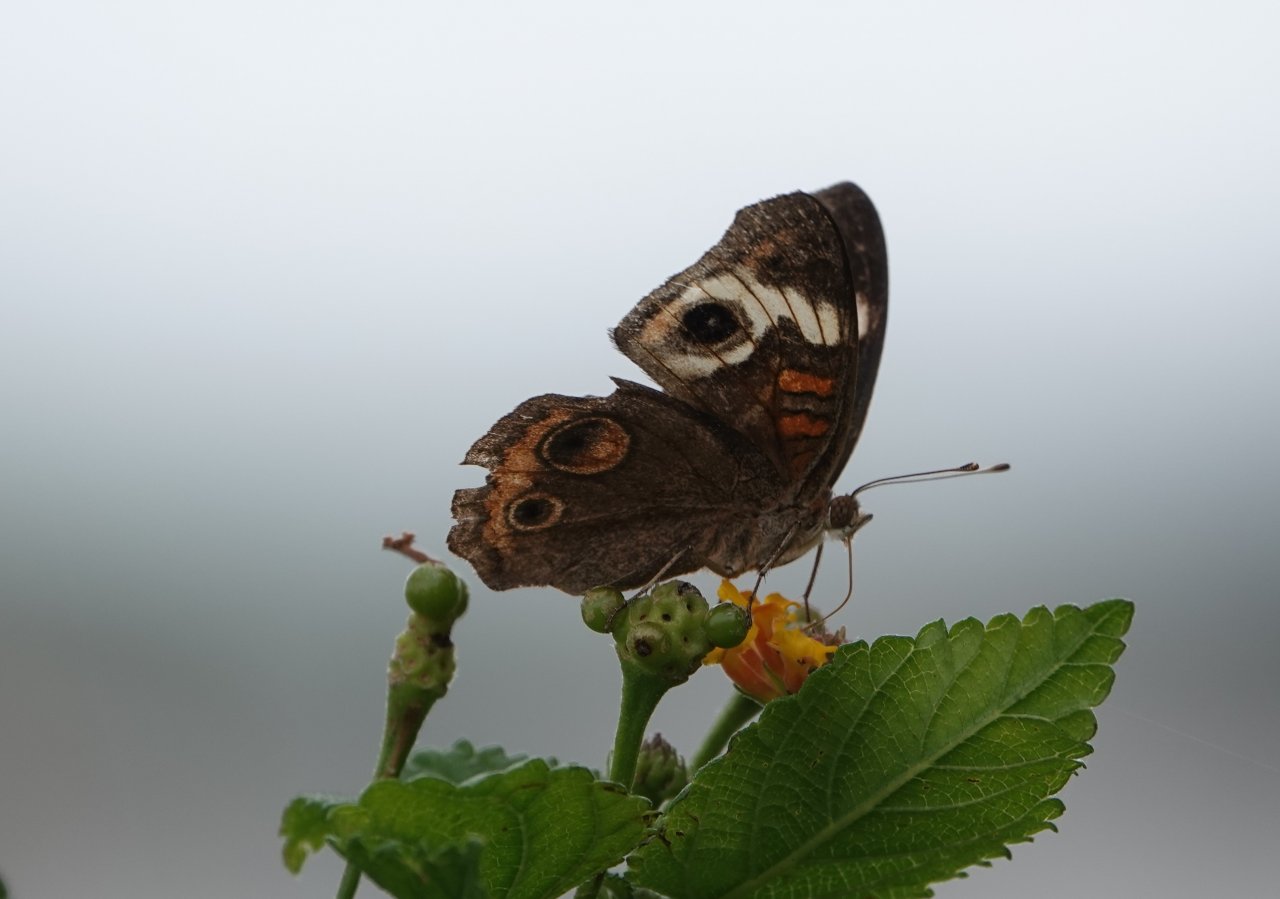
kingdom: Animalia
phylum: Arthropoda
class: Insecta
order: Lepidoptera
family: Nymphalidae
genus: Junonia
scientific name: Junonia coenia
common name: Common Buckeye
